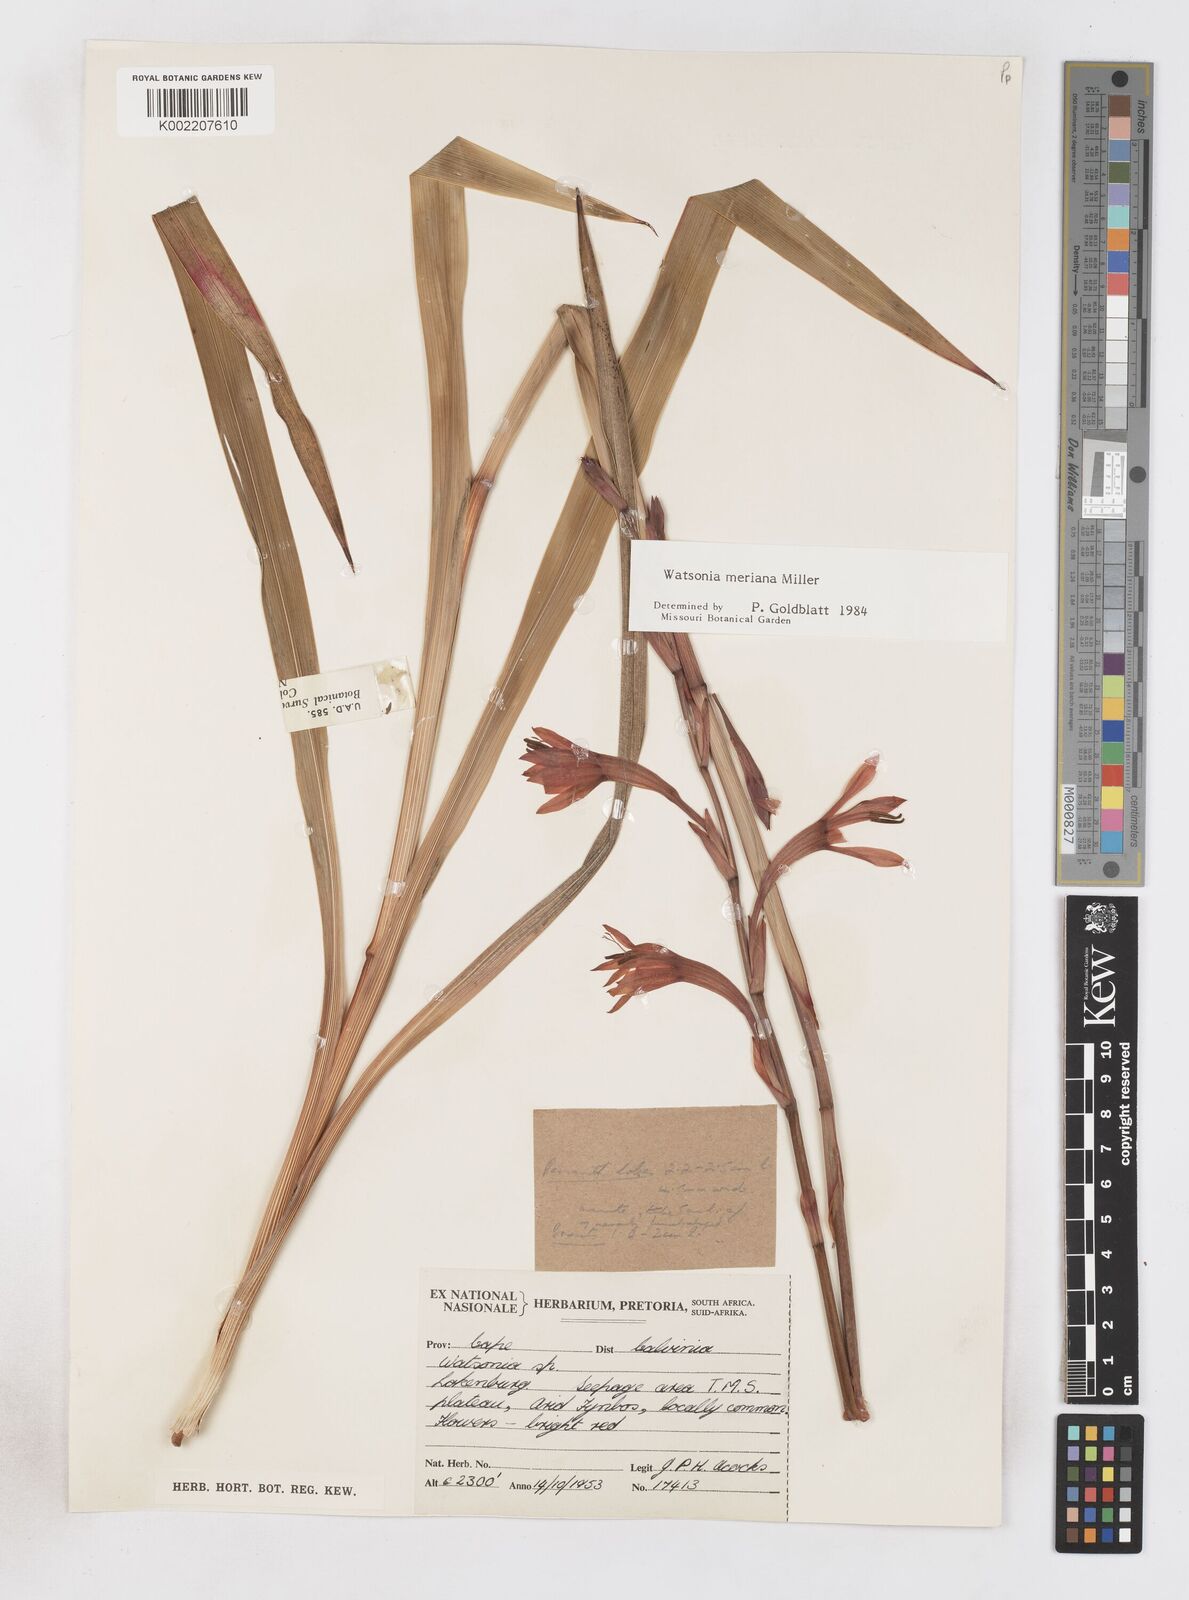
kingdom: Plantae
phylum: Tracheophyta
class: Liliopsida
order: Asparagales
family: Iridaceae
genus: Watsonia
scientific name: Watsonia meriana
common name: Bulbil bugle-lily
